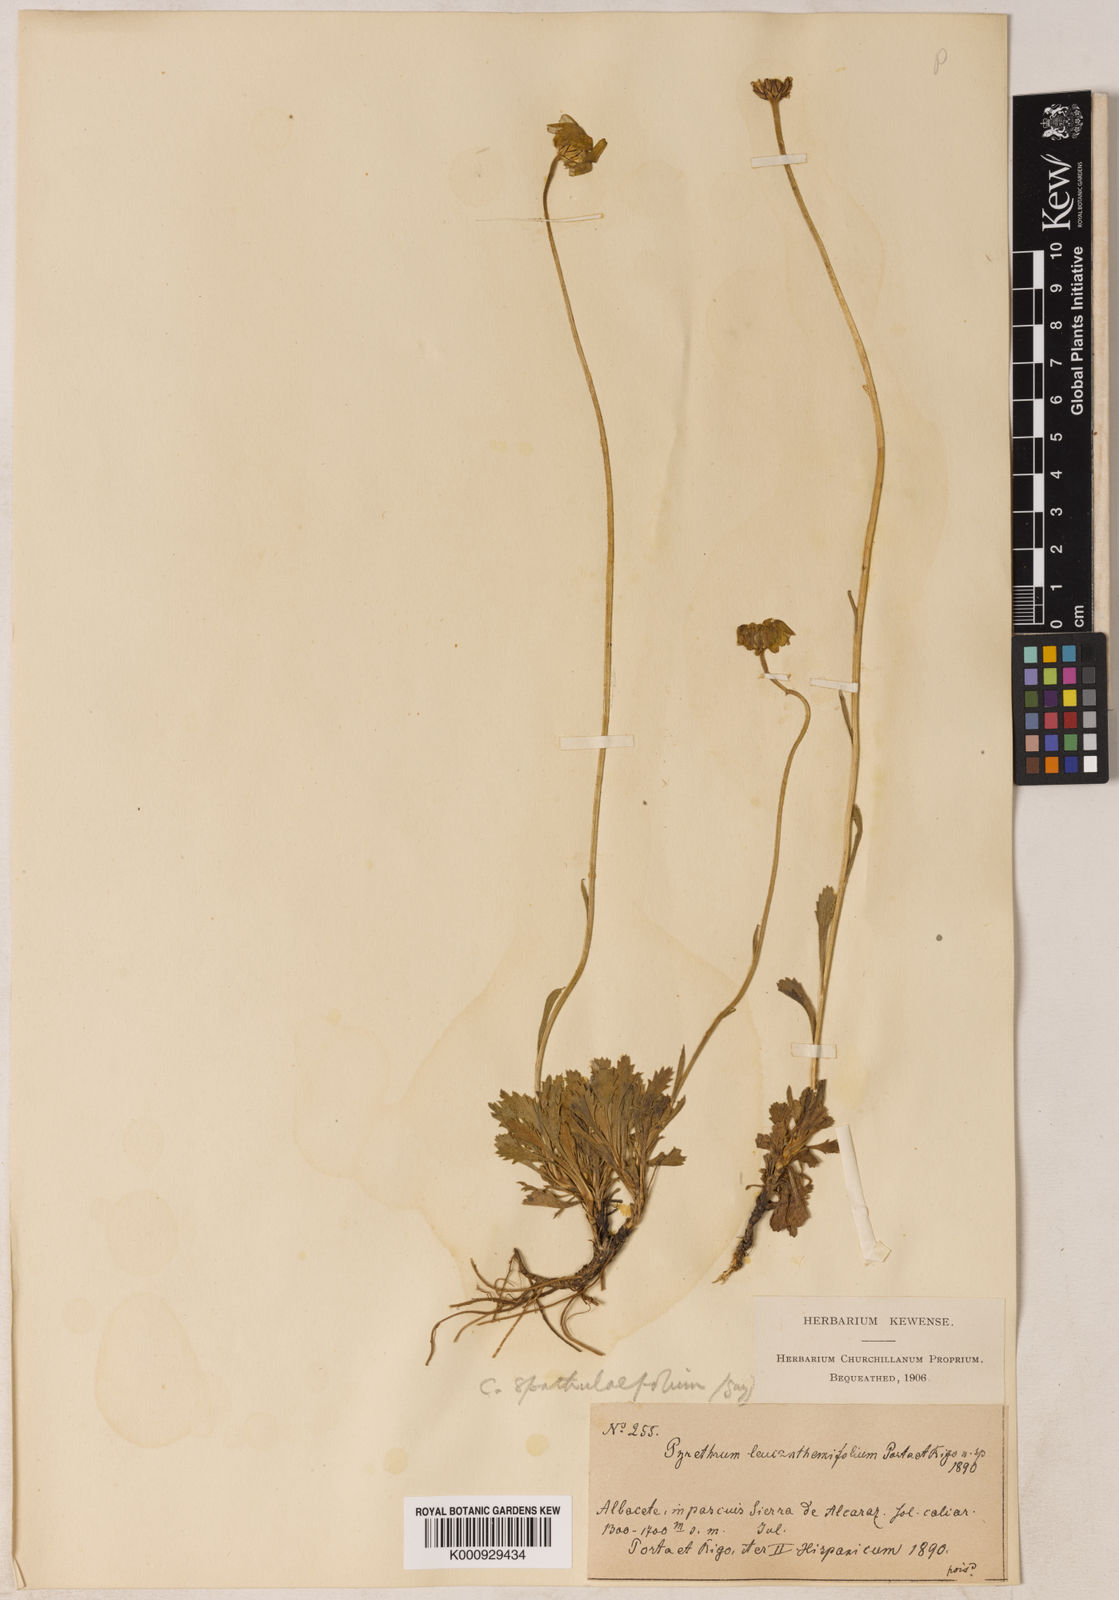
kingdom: Plantae
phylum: Tracheophyta
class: Magnoliopsida
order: Asterales
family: Asteraceae
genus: Leucanthemopsis
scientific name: Leucanthemopsis spathulifolia
